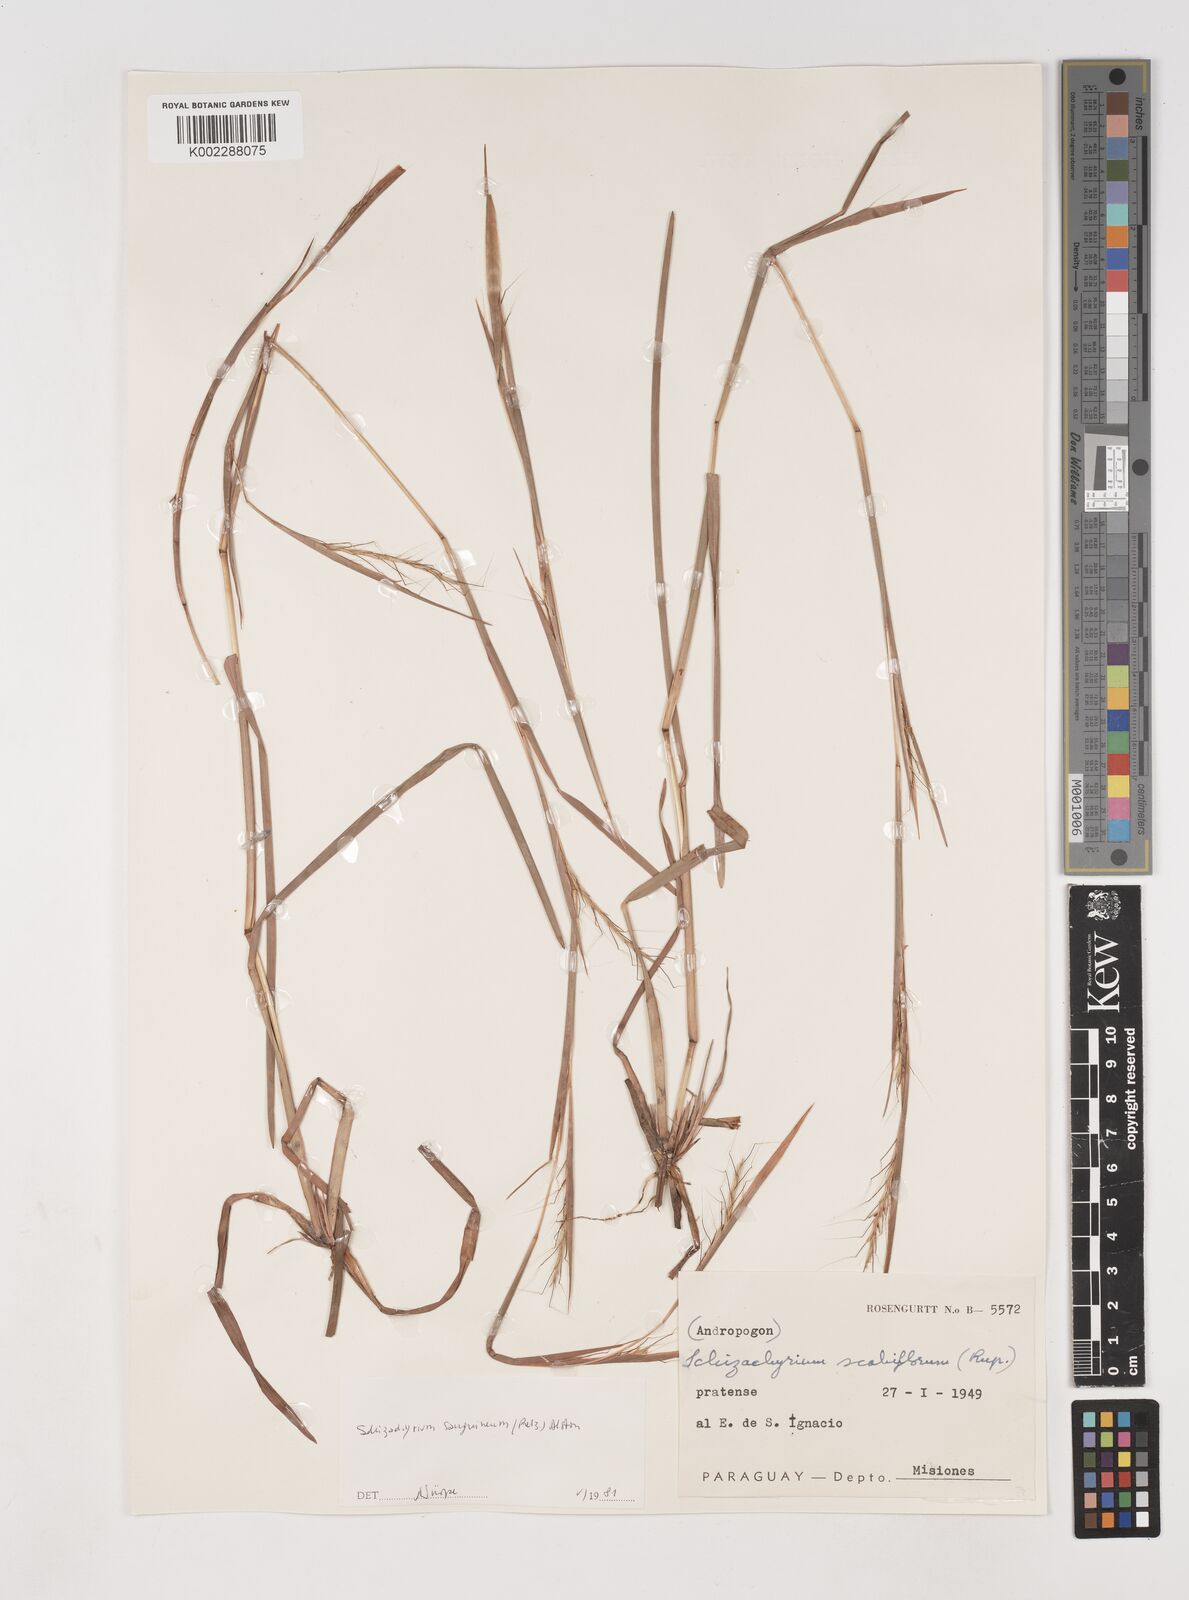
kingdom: Plantae
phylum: Tracheophyta
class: Liliopsida
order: Poales
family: Poaceae
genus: Schizachyrium
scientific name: Schizachyrium scabriflorum
